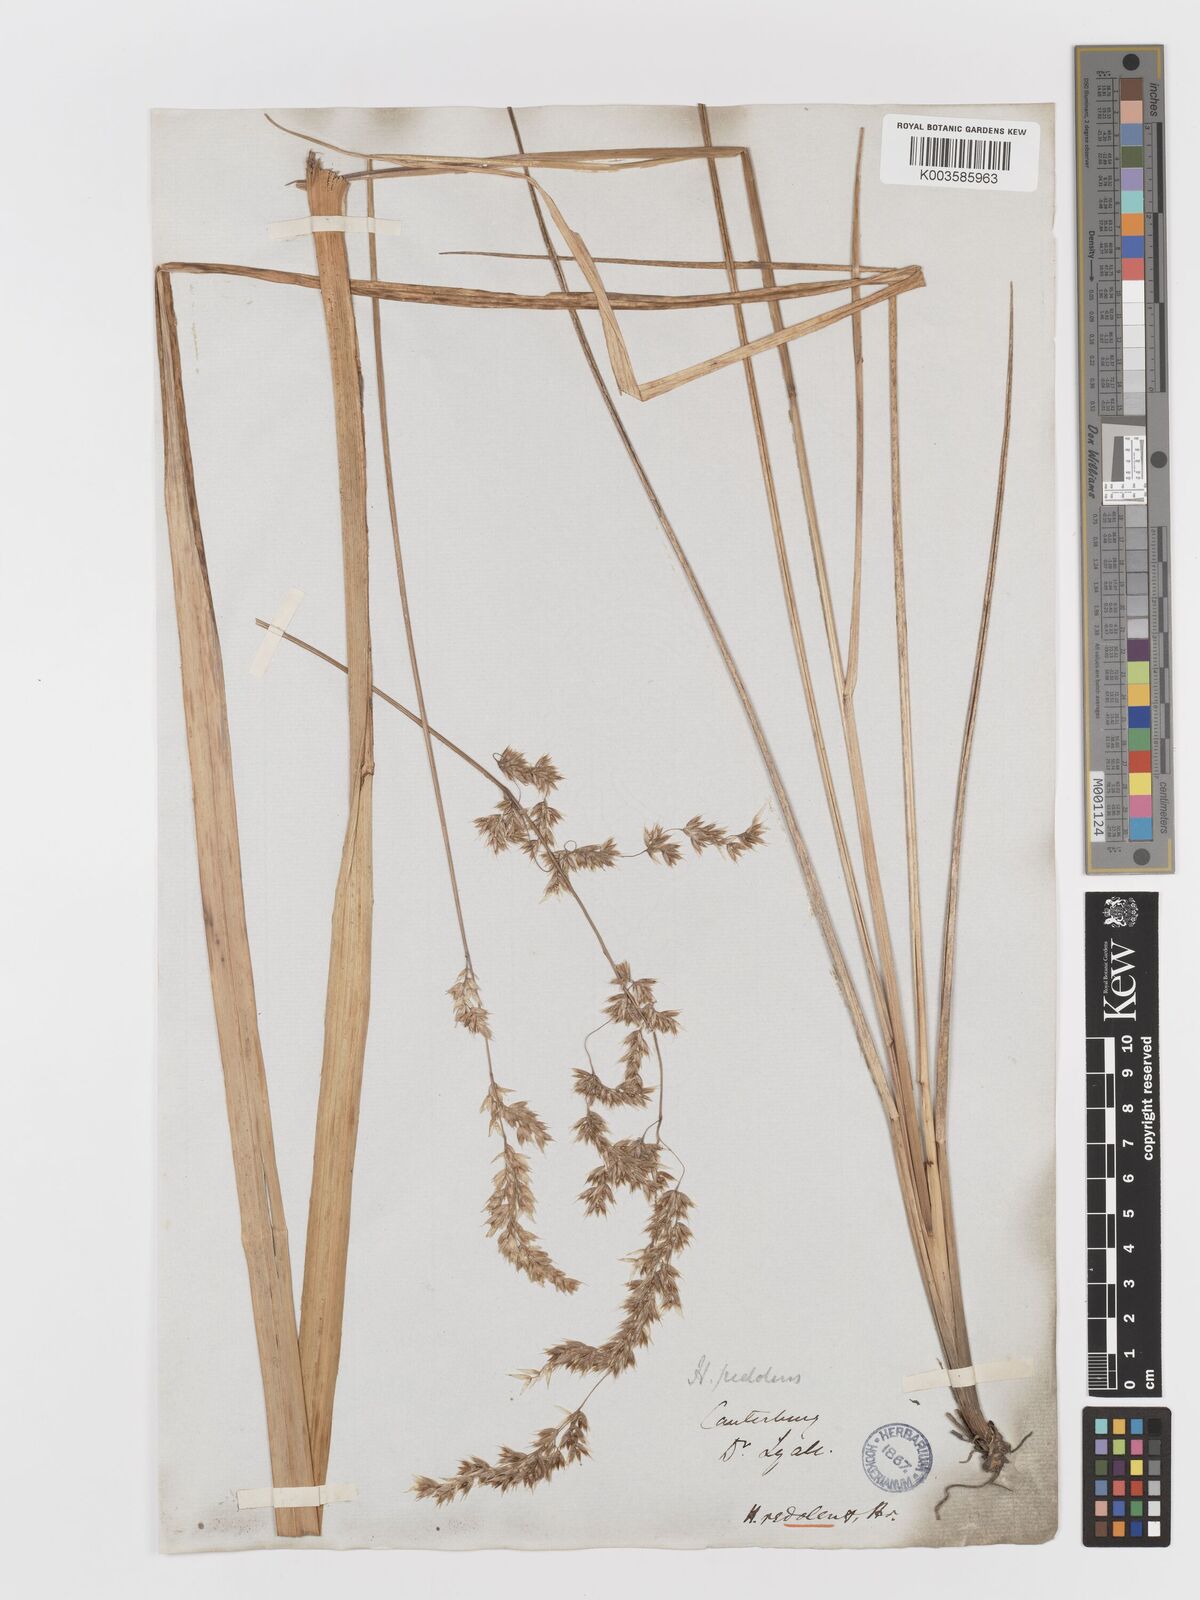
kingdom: Plantae
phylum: Tracheophyta
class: Liliopsida
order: Poales
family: Poaceae
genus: Anthoxanthum
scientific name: Anthoxanthum redolens
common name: Sweet holy grass
